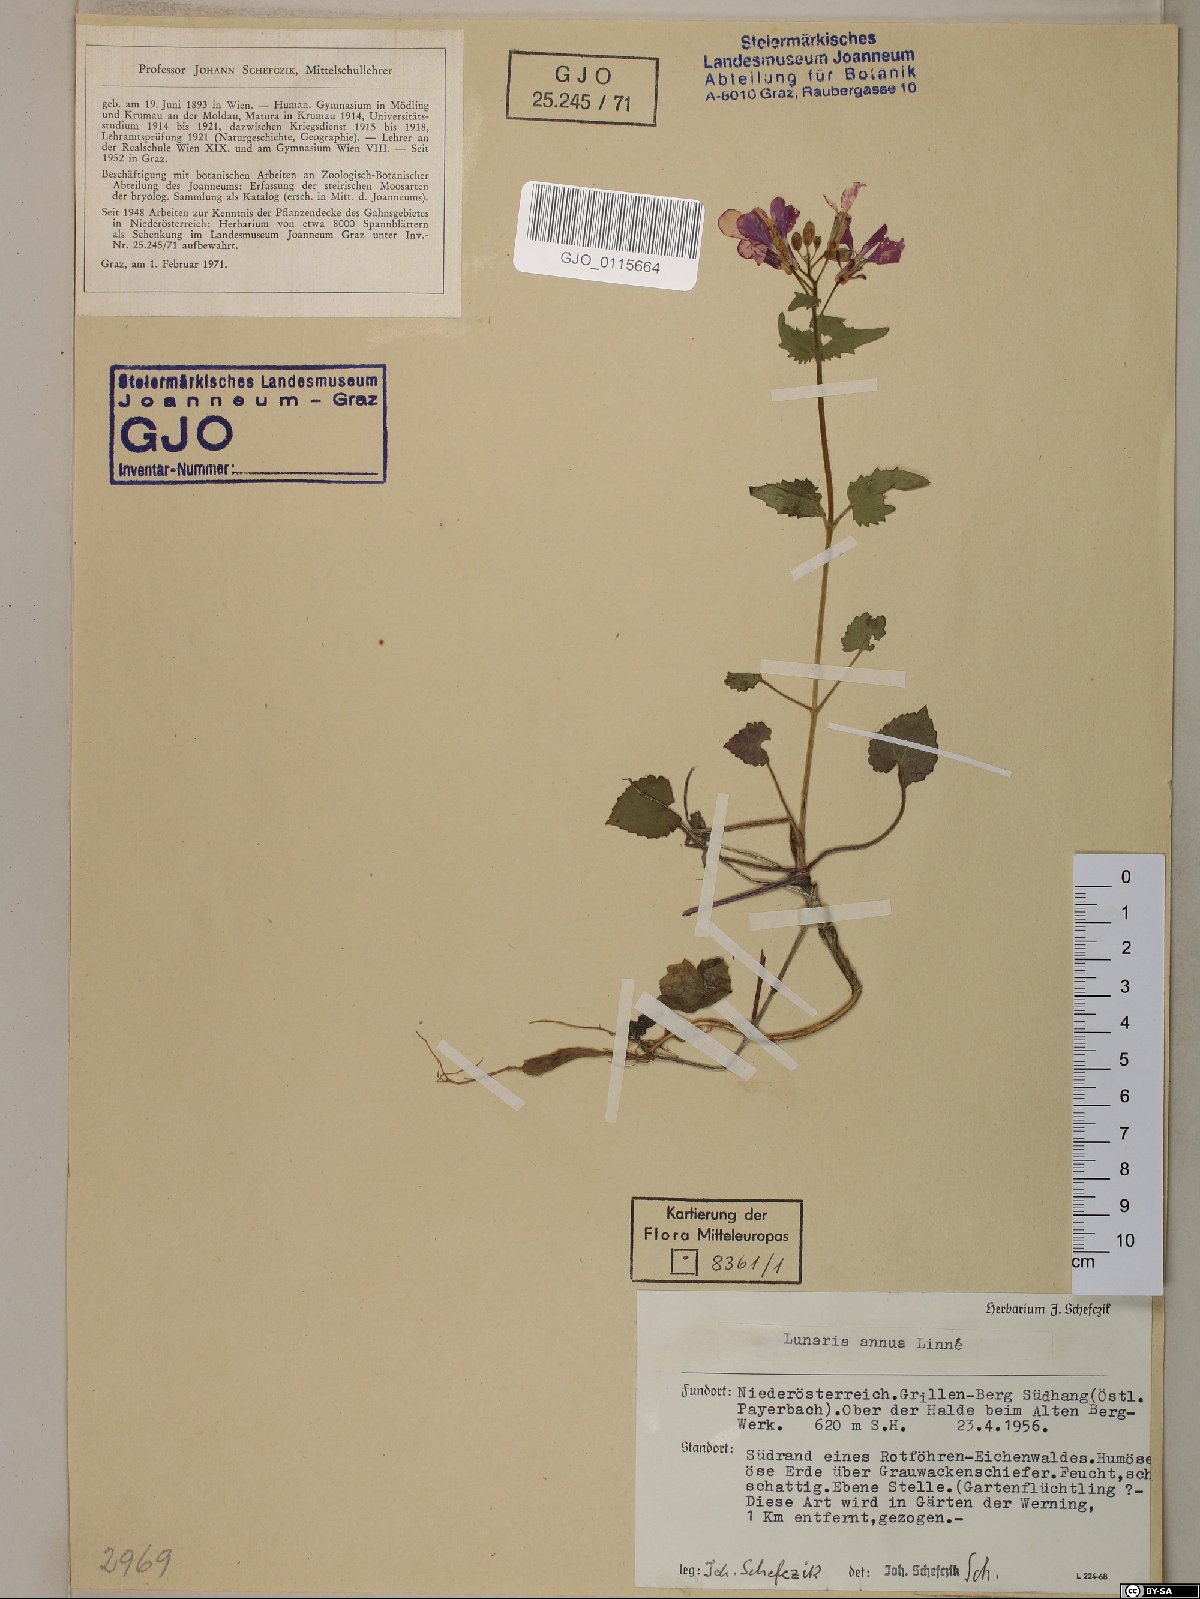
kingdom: Plantae
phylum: Tracheophyta
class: Magnoliopsida
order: Brassicales
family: Brassicaceae
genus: Lunaria
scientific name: Lunaria annua
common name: Honesty
